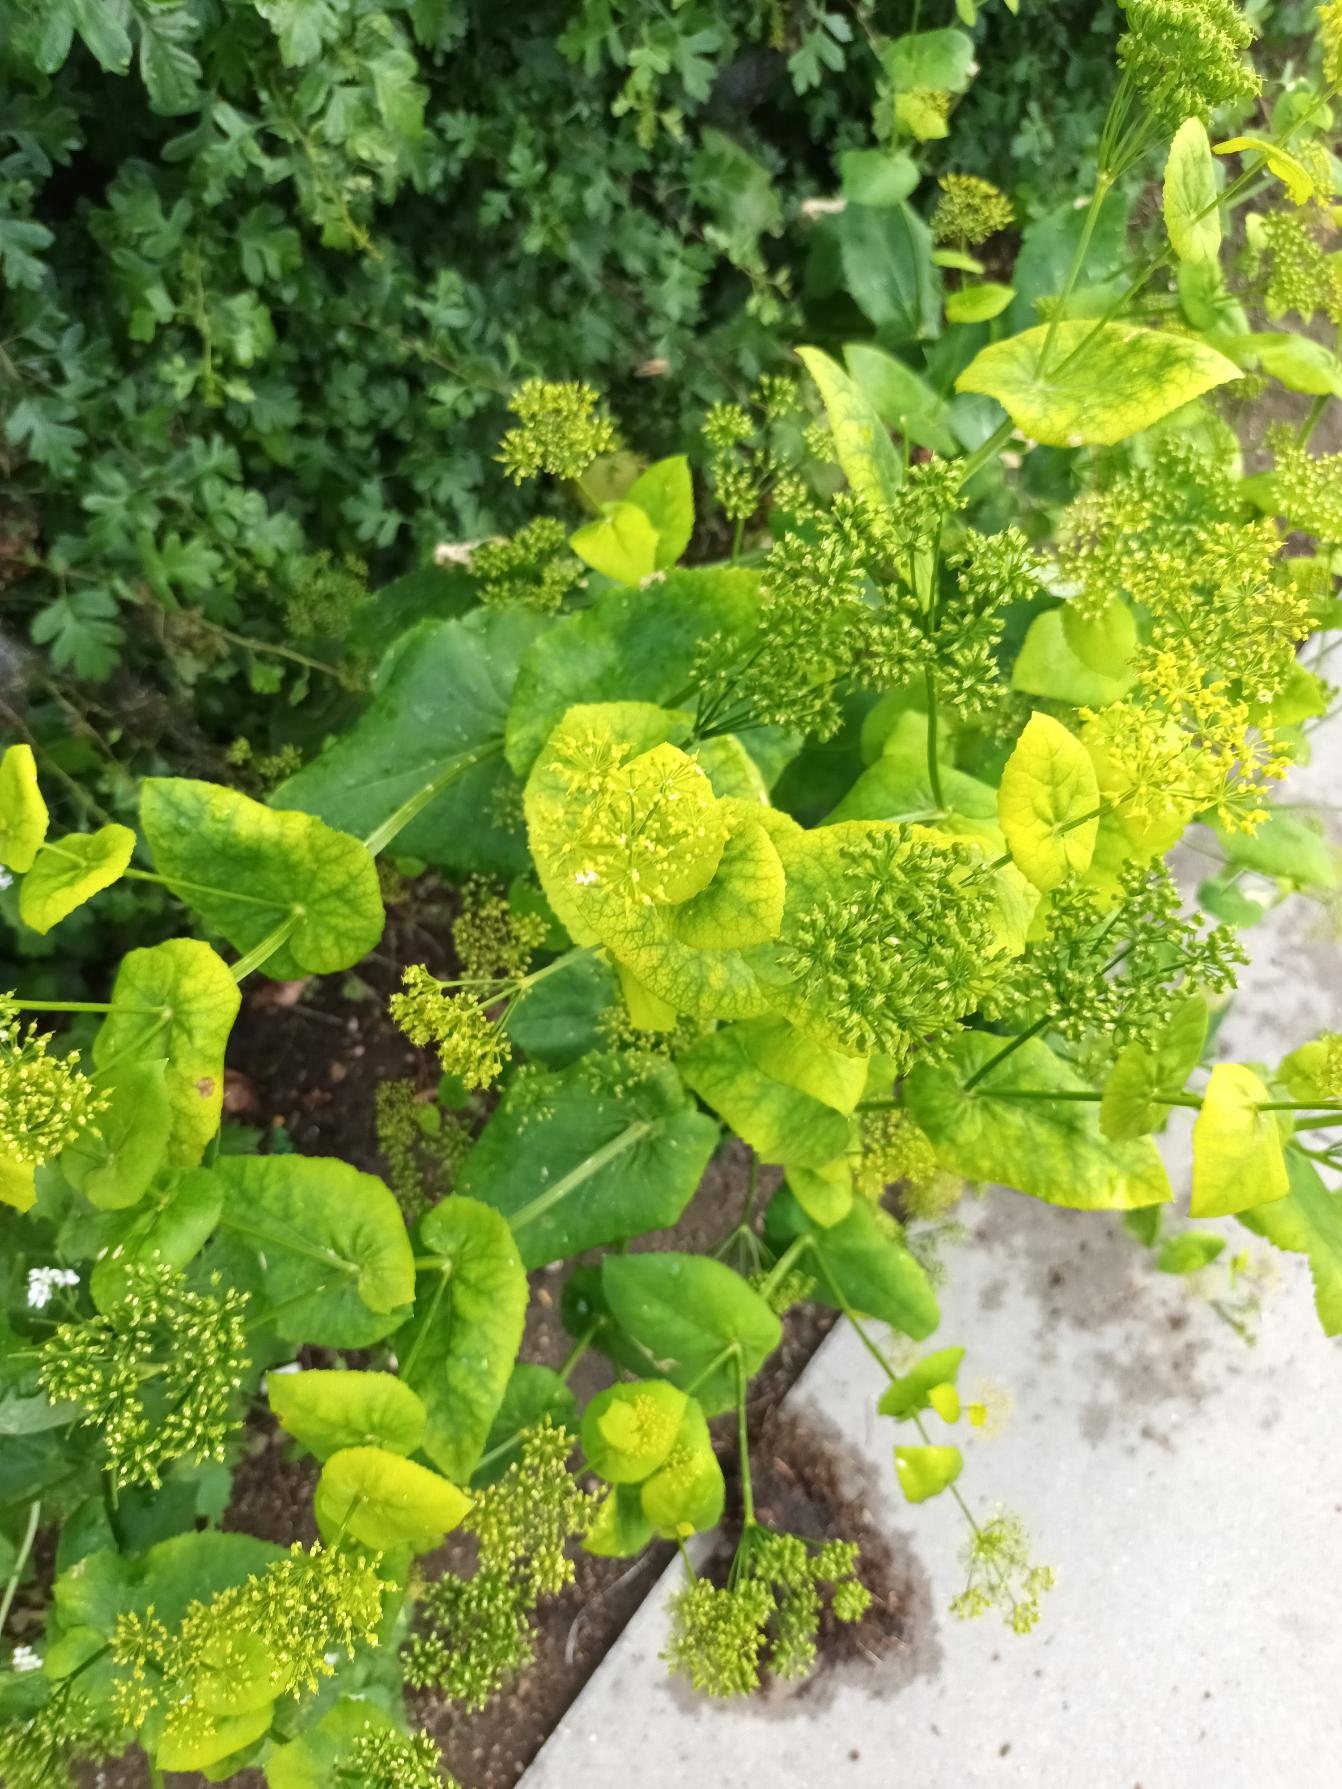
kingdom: Plantae
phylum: Tracheophyta
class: Magnoliopsida
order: Apiales
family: Apiaceae
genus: Smyrnium
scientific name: Smyrnium perfoliatum
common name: Lundgylden
